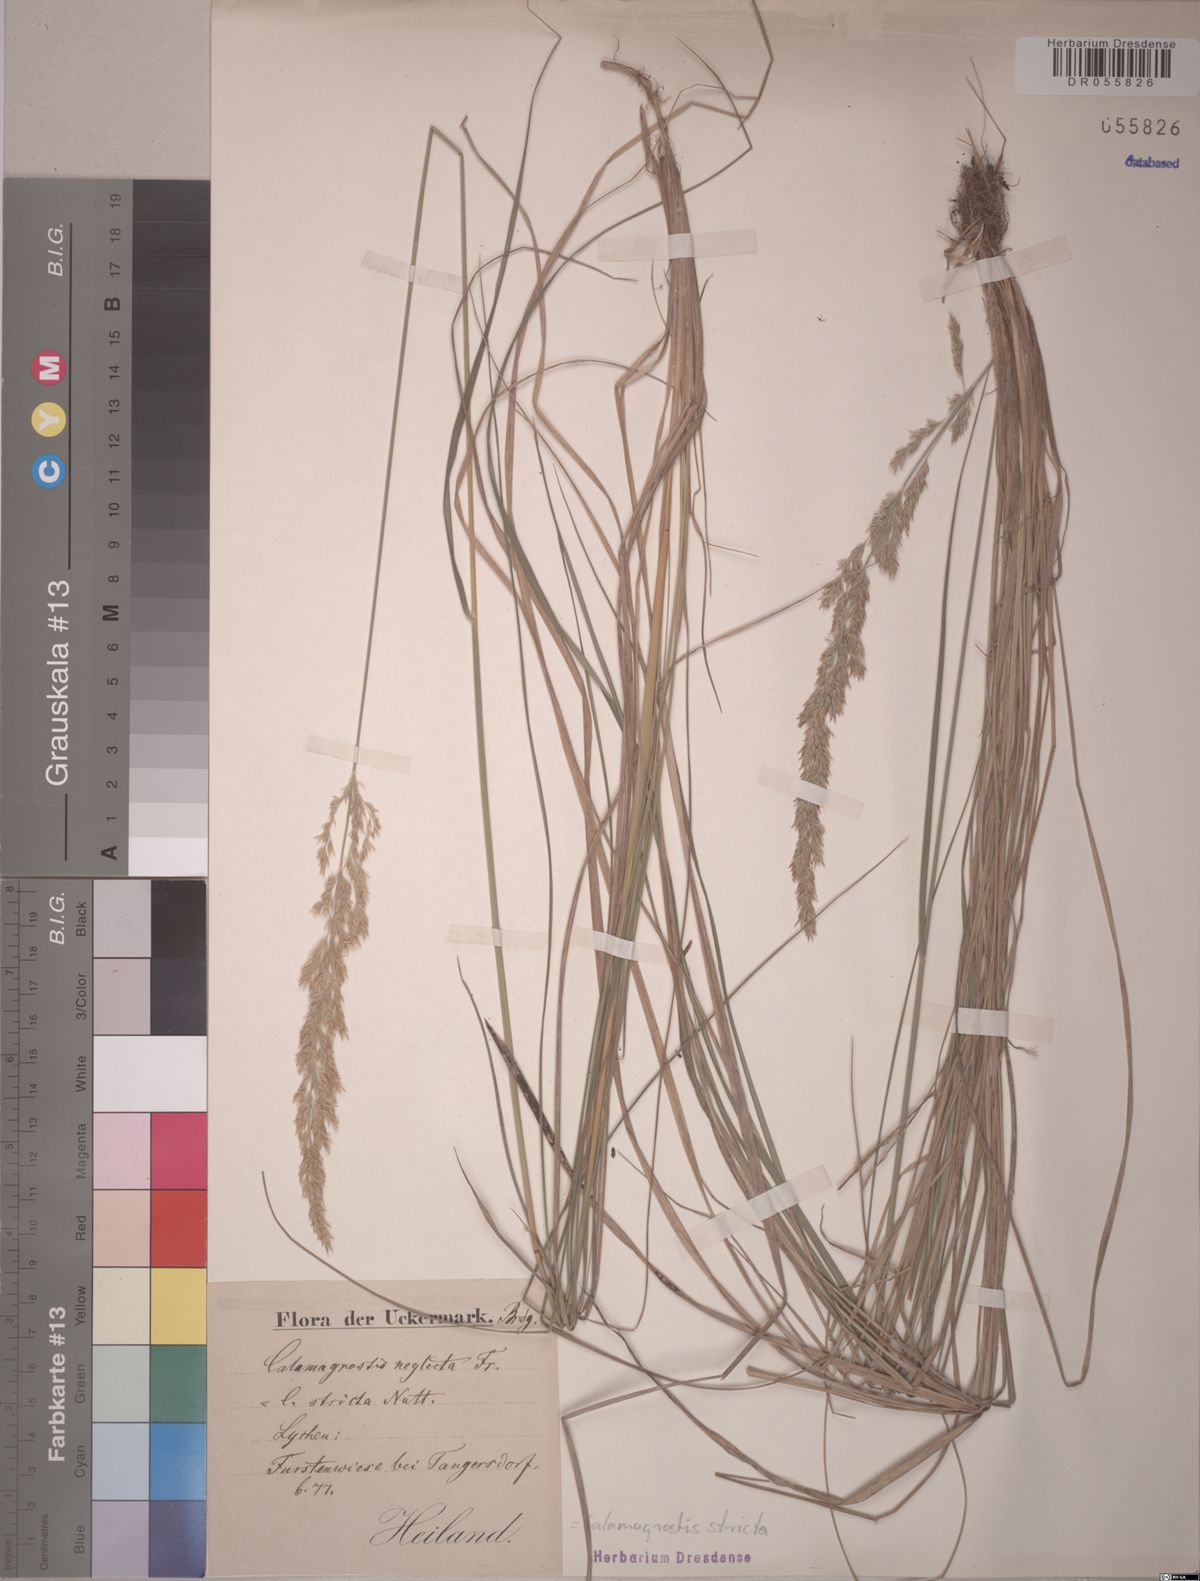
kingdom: Plantae
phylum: Tracheophyta
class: Liliopsida
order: Poales
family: Poaceae
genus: Calamagrostis
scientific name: Calamagrostis stricta
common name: Narrow small-reed
